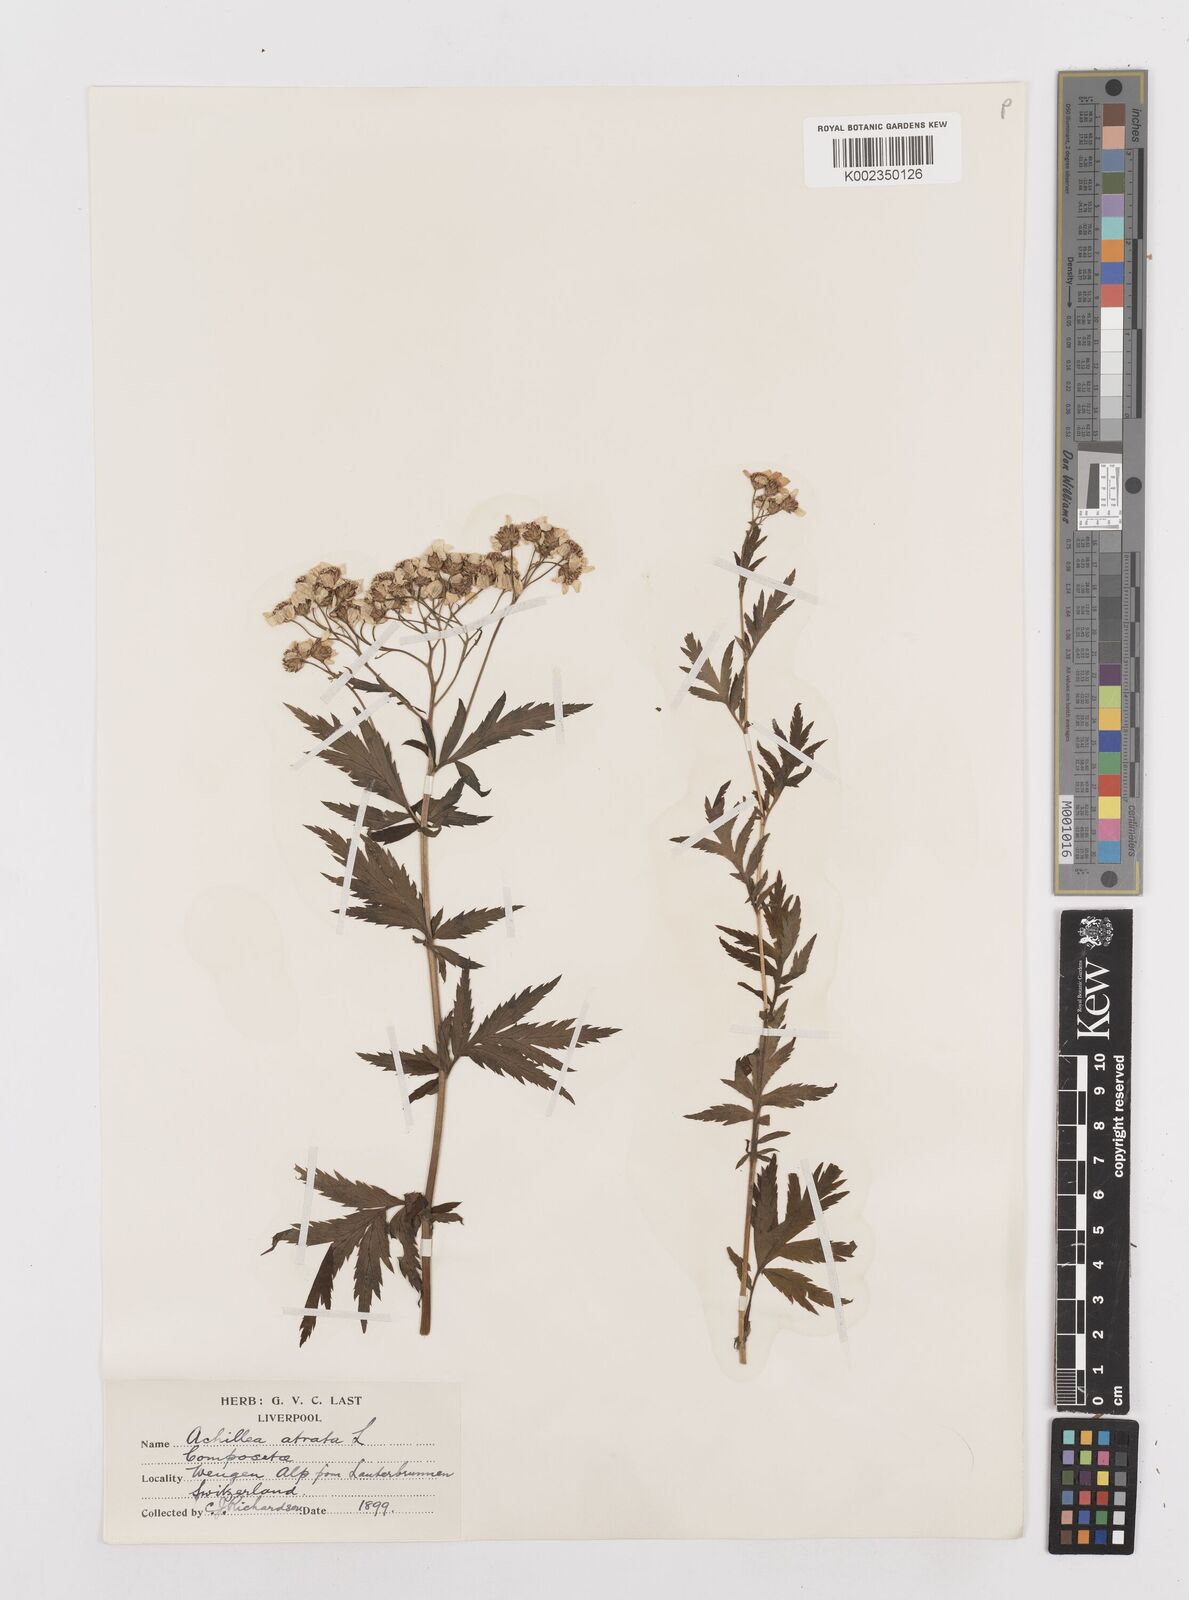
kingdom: Plantae
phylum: Tracheophyta
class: Magnoliopsida
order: Asterales
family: Asteraceae
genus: Achillea
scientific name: Achillea atrata
